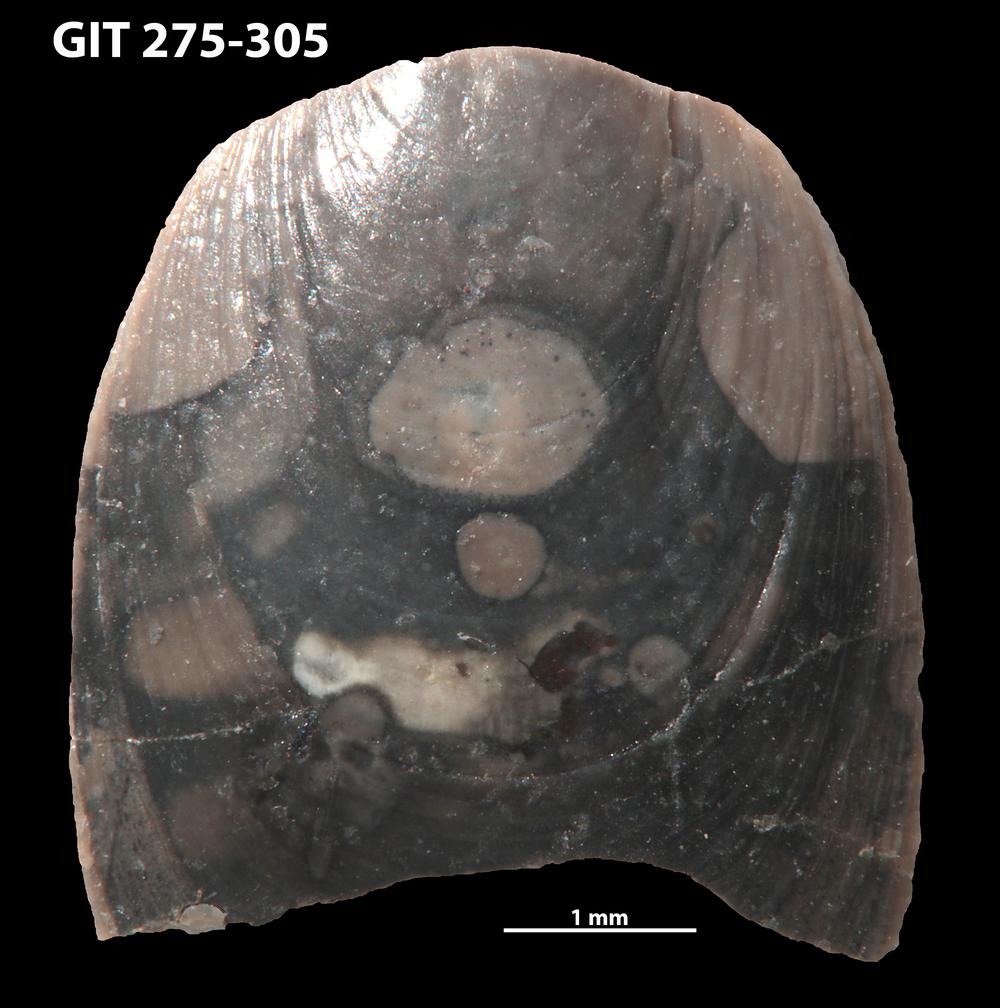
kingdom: Animalia
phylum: Brachiopoda
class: Lingulata
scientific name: Lingulata
